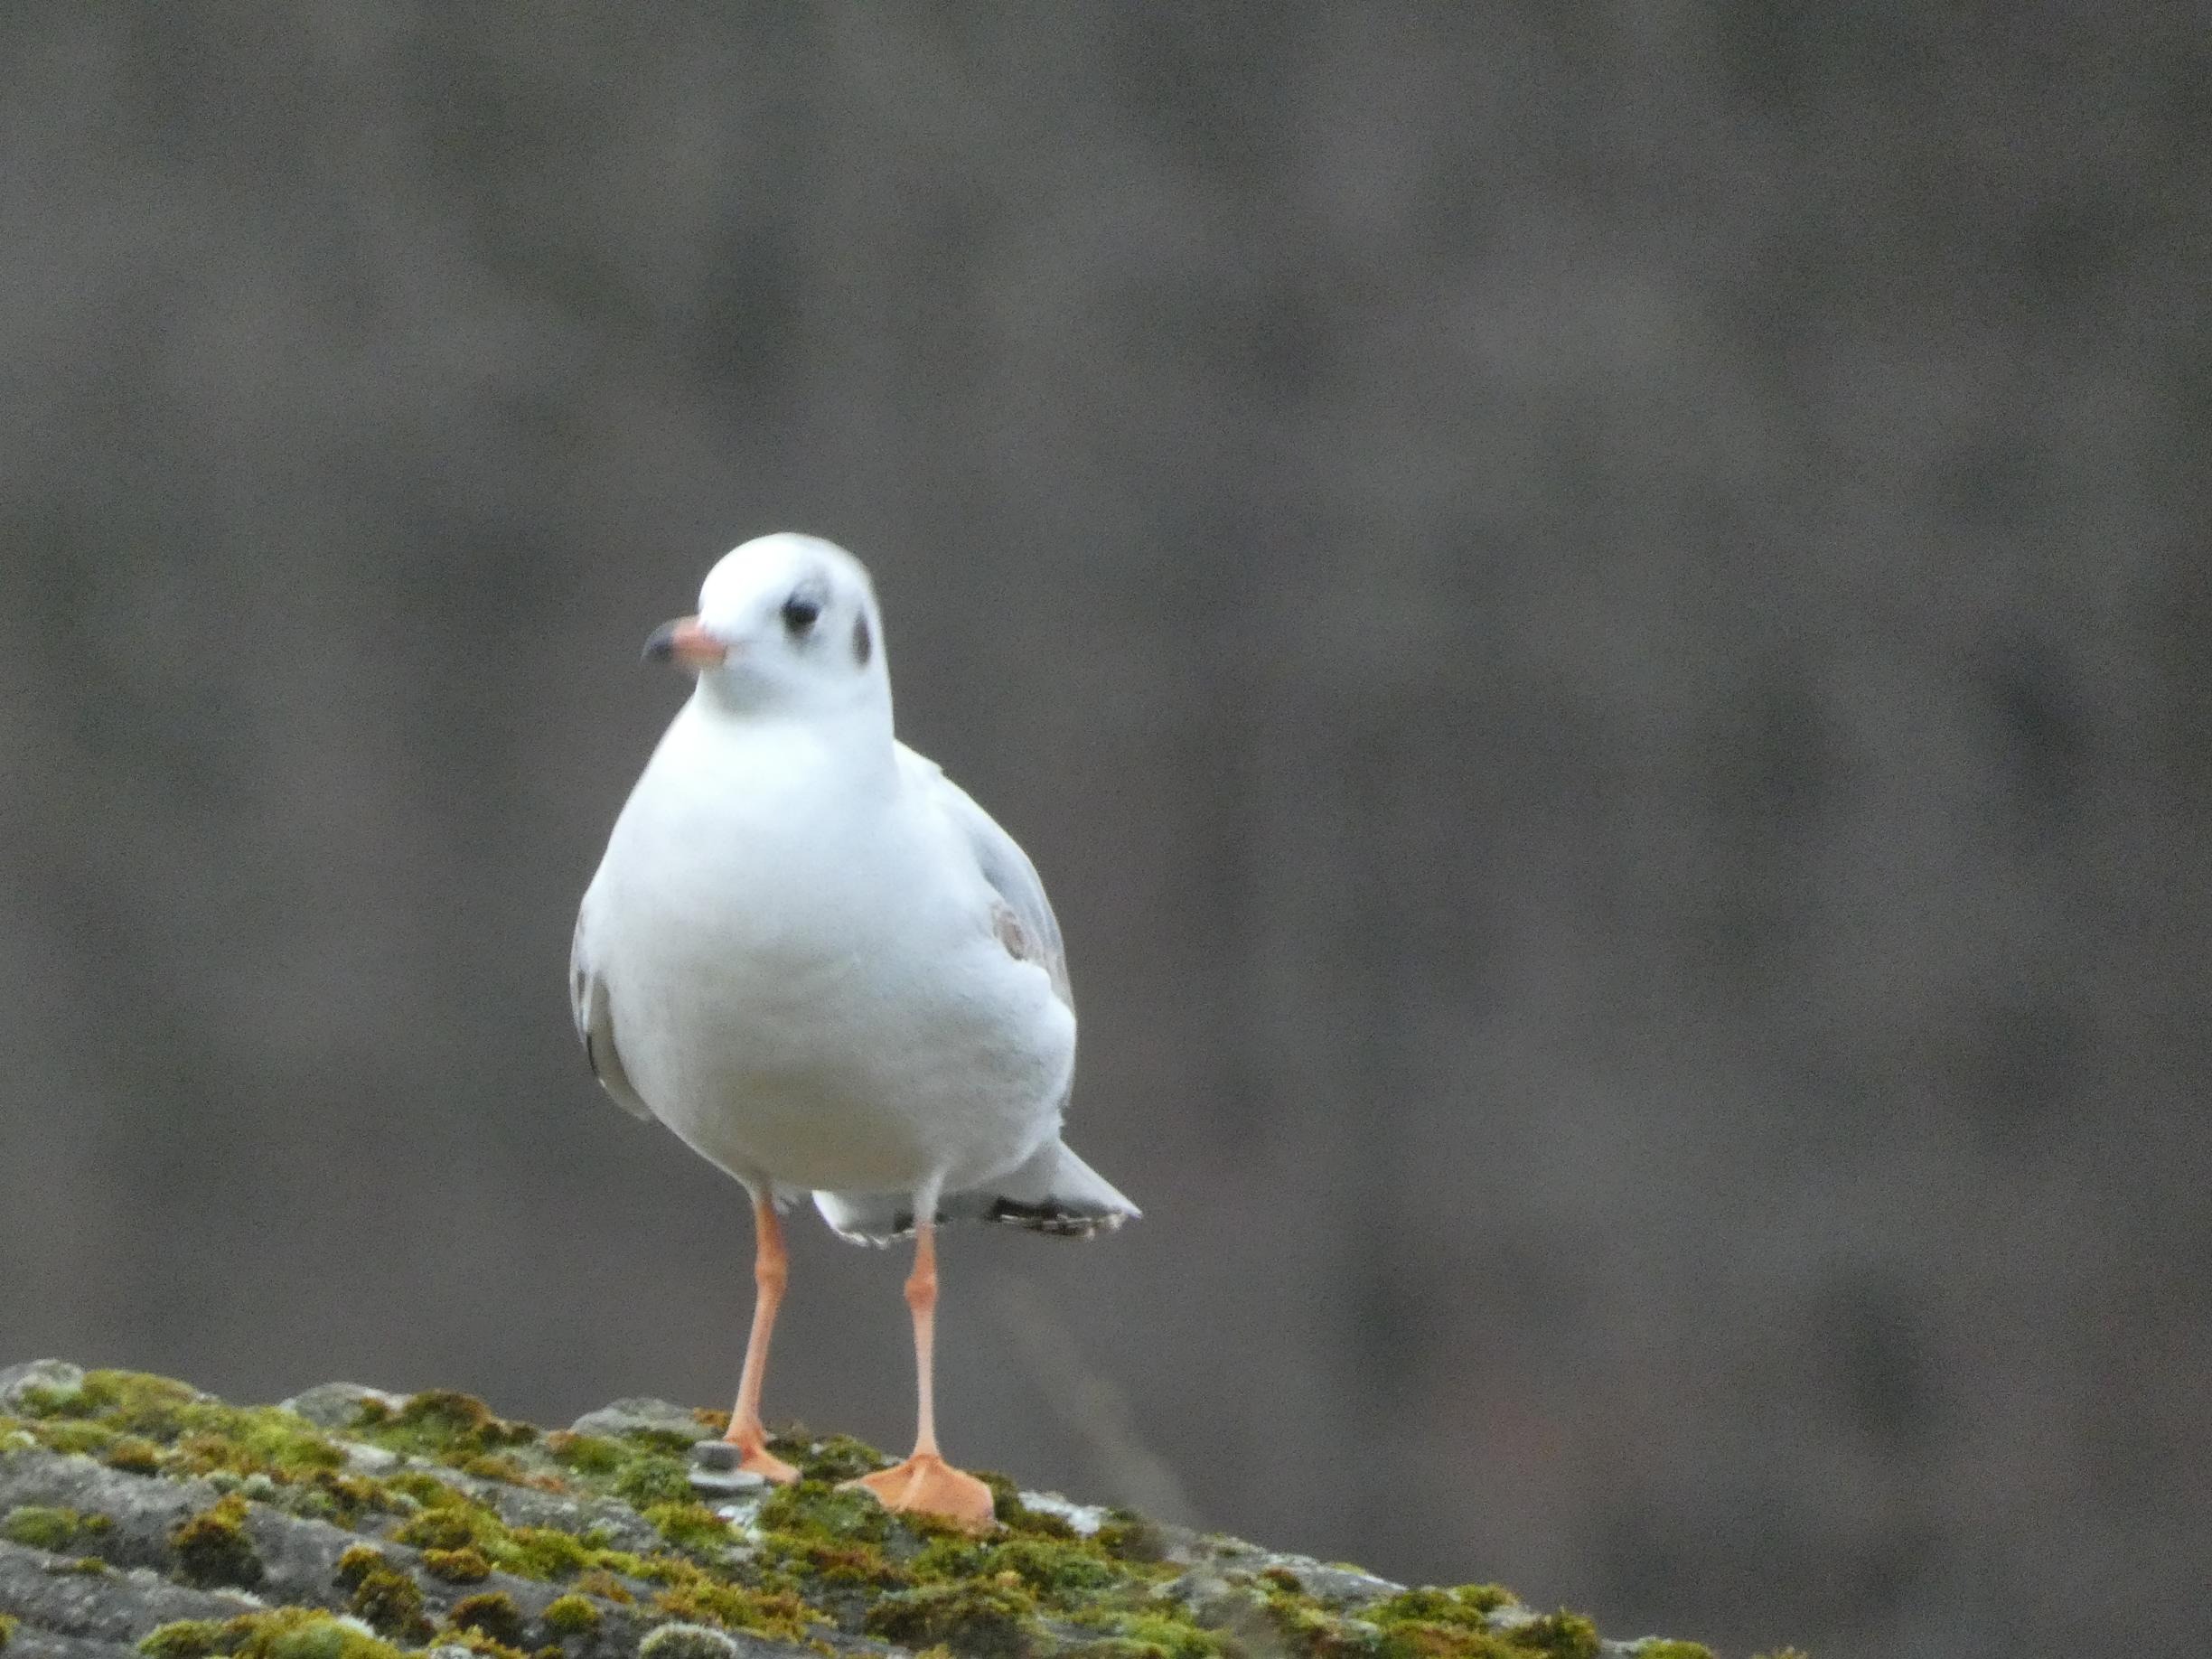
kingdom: Animalia
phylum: Chordata
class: Aves
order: Charadriiformes
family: Laridae
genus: Chroicocephalus
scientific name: Chroicocephalus ridibundus
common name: Hættemåge
